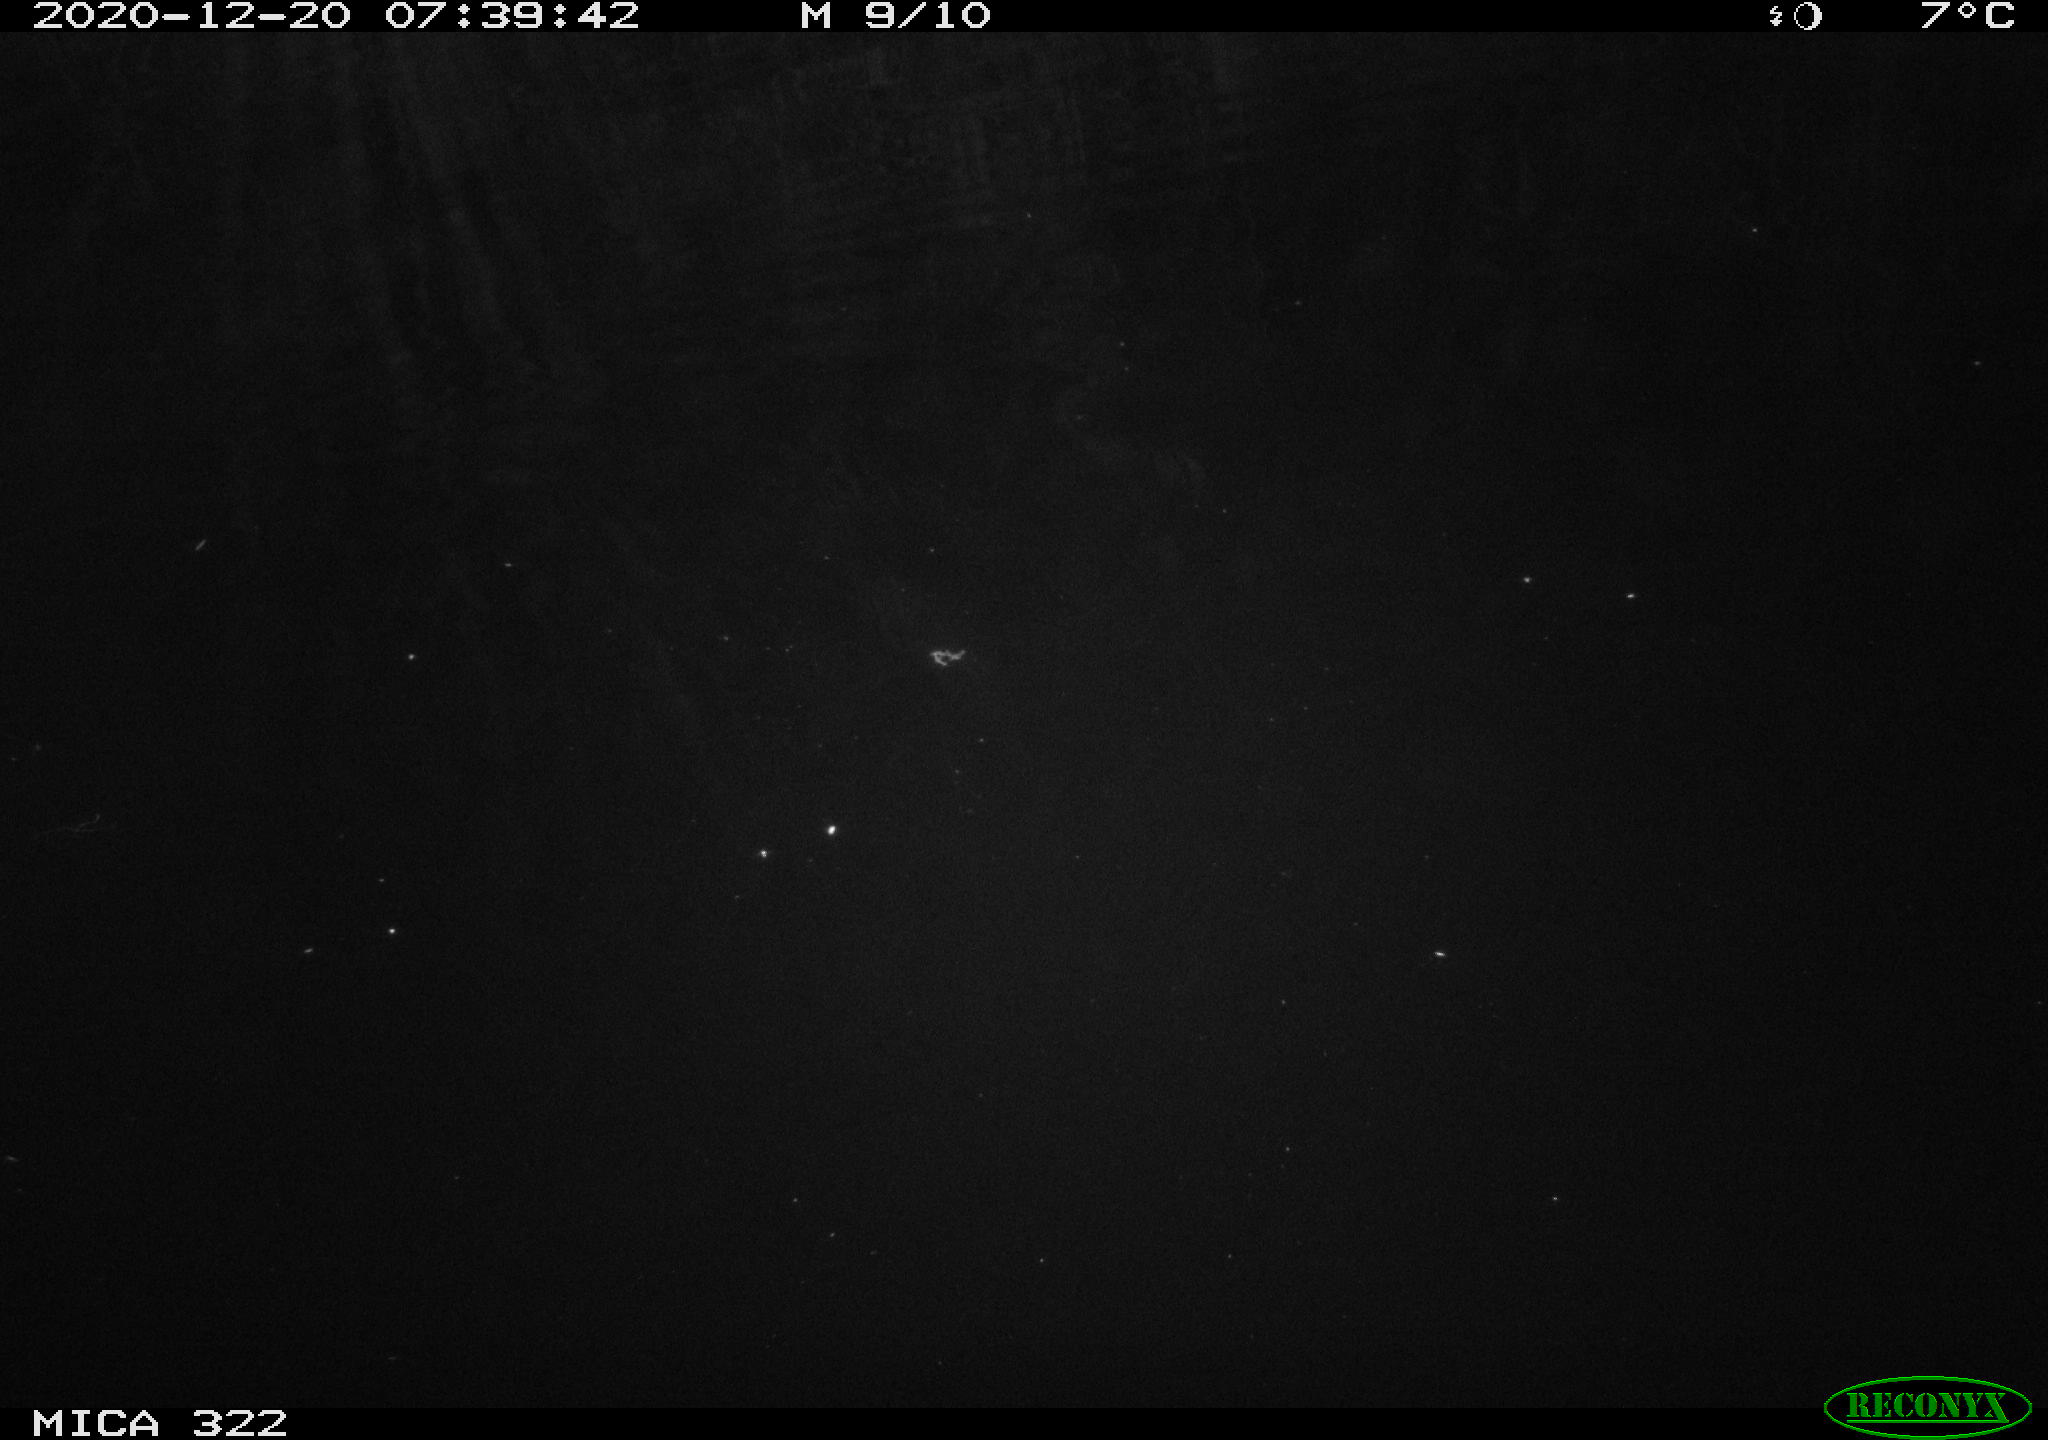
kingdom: Animalia
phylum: Chordata
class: Aves
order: Gruiformes
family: Rallidae
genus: Gallinula
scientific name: Gallinula chloropus
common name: Common moorhen
